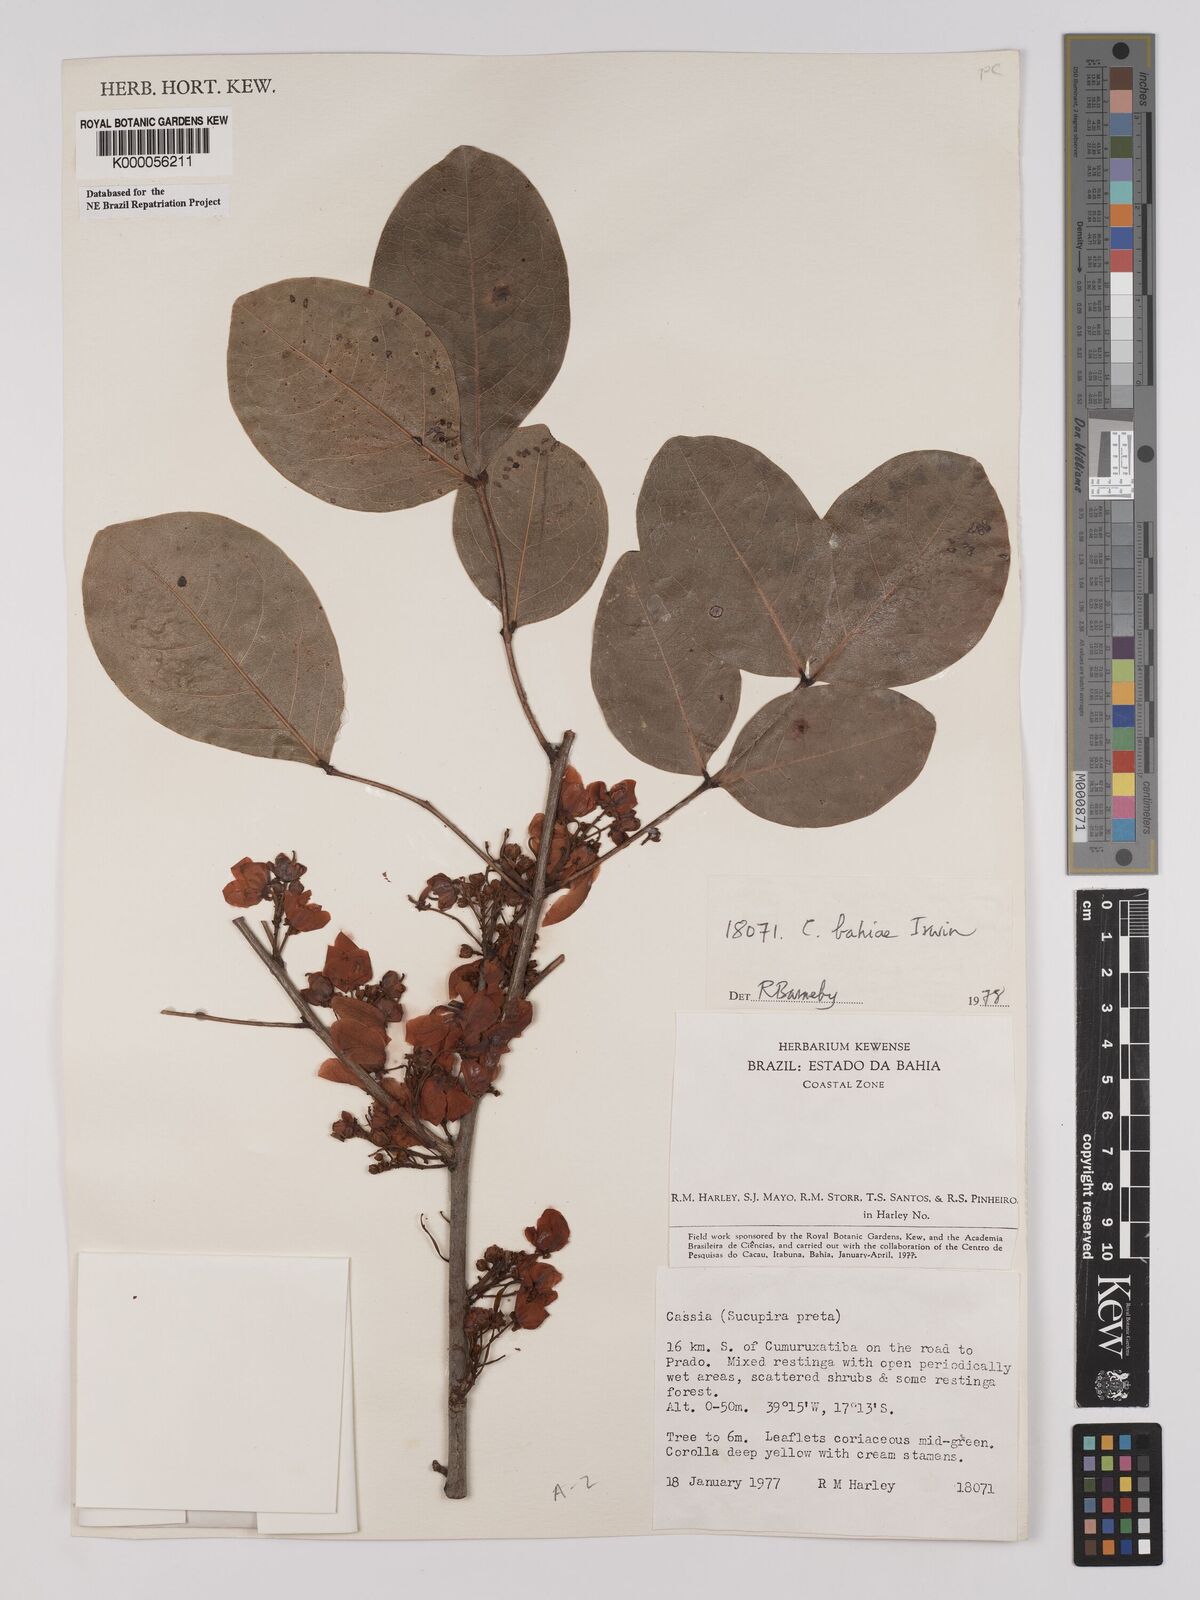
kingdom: Plantae
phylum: Tracheophyta
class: Magnoliopsida
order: Fabales
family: Fabaceae
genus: Chamaecrista
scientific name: Chamaecrista bahiae
